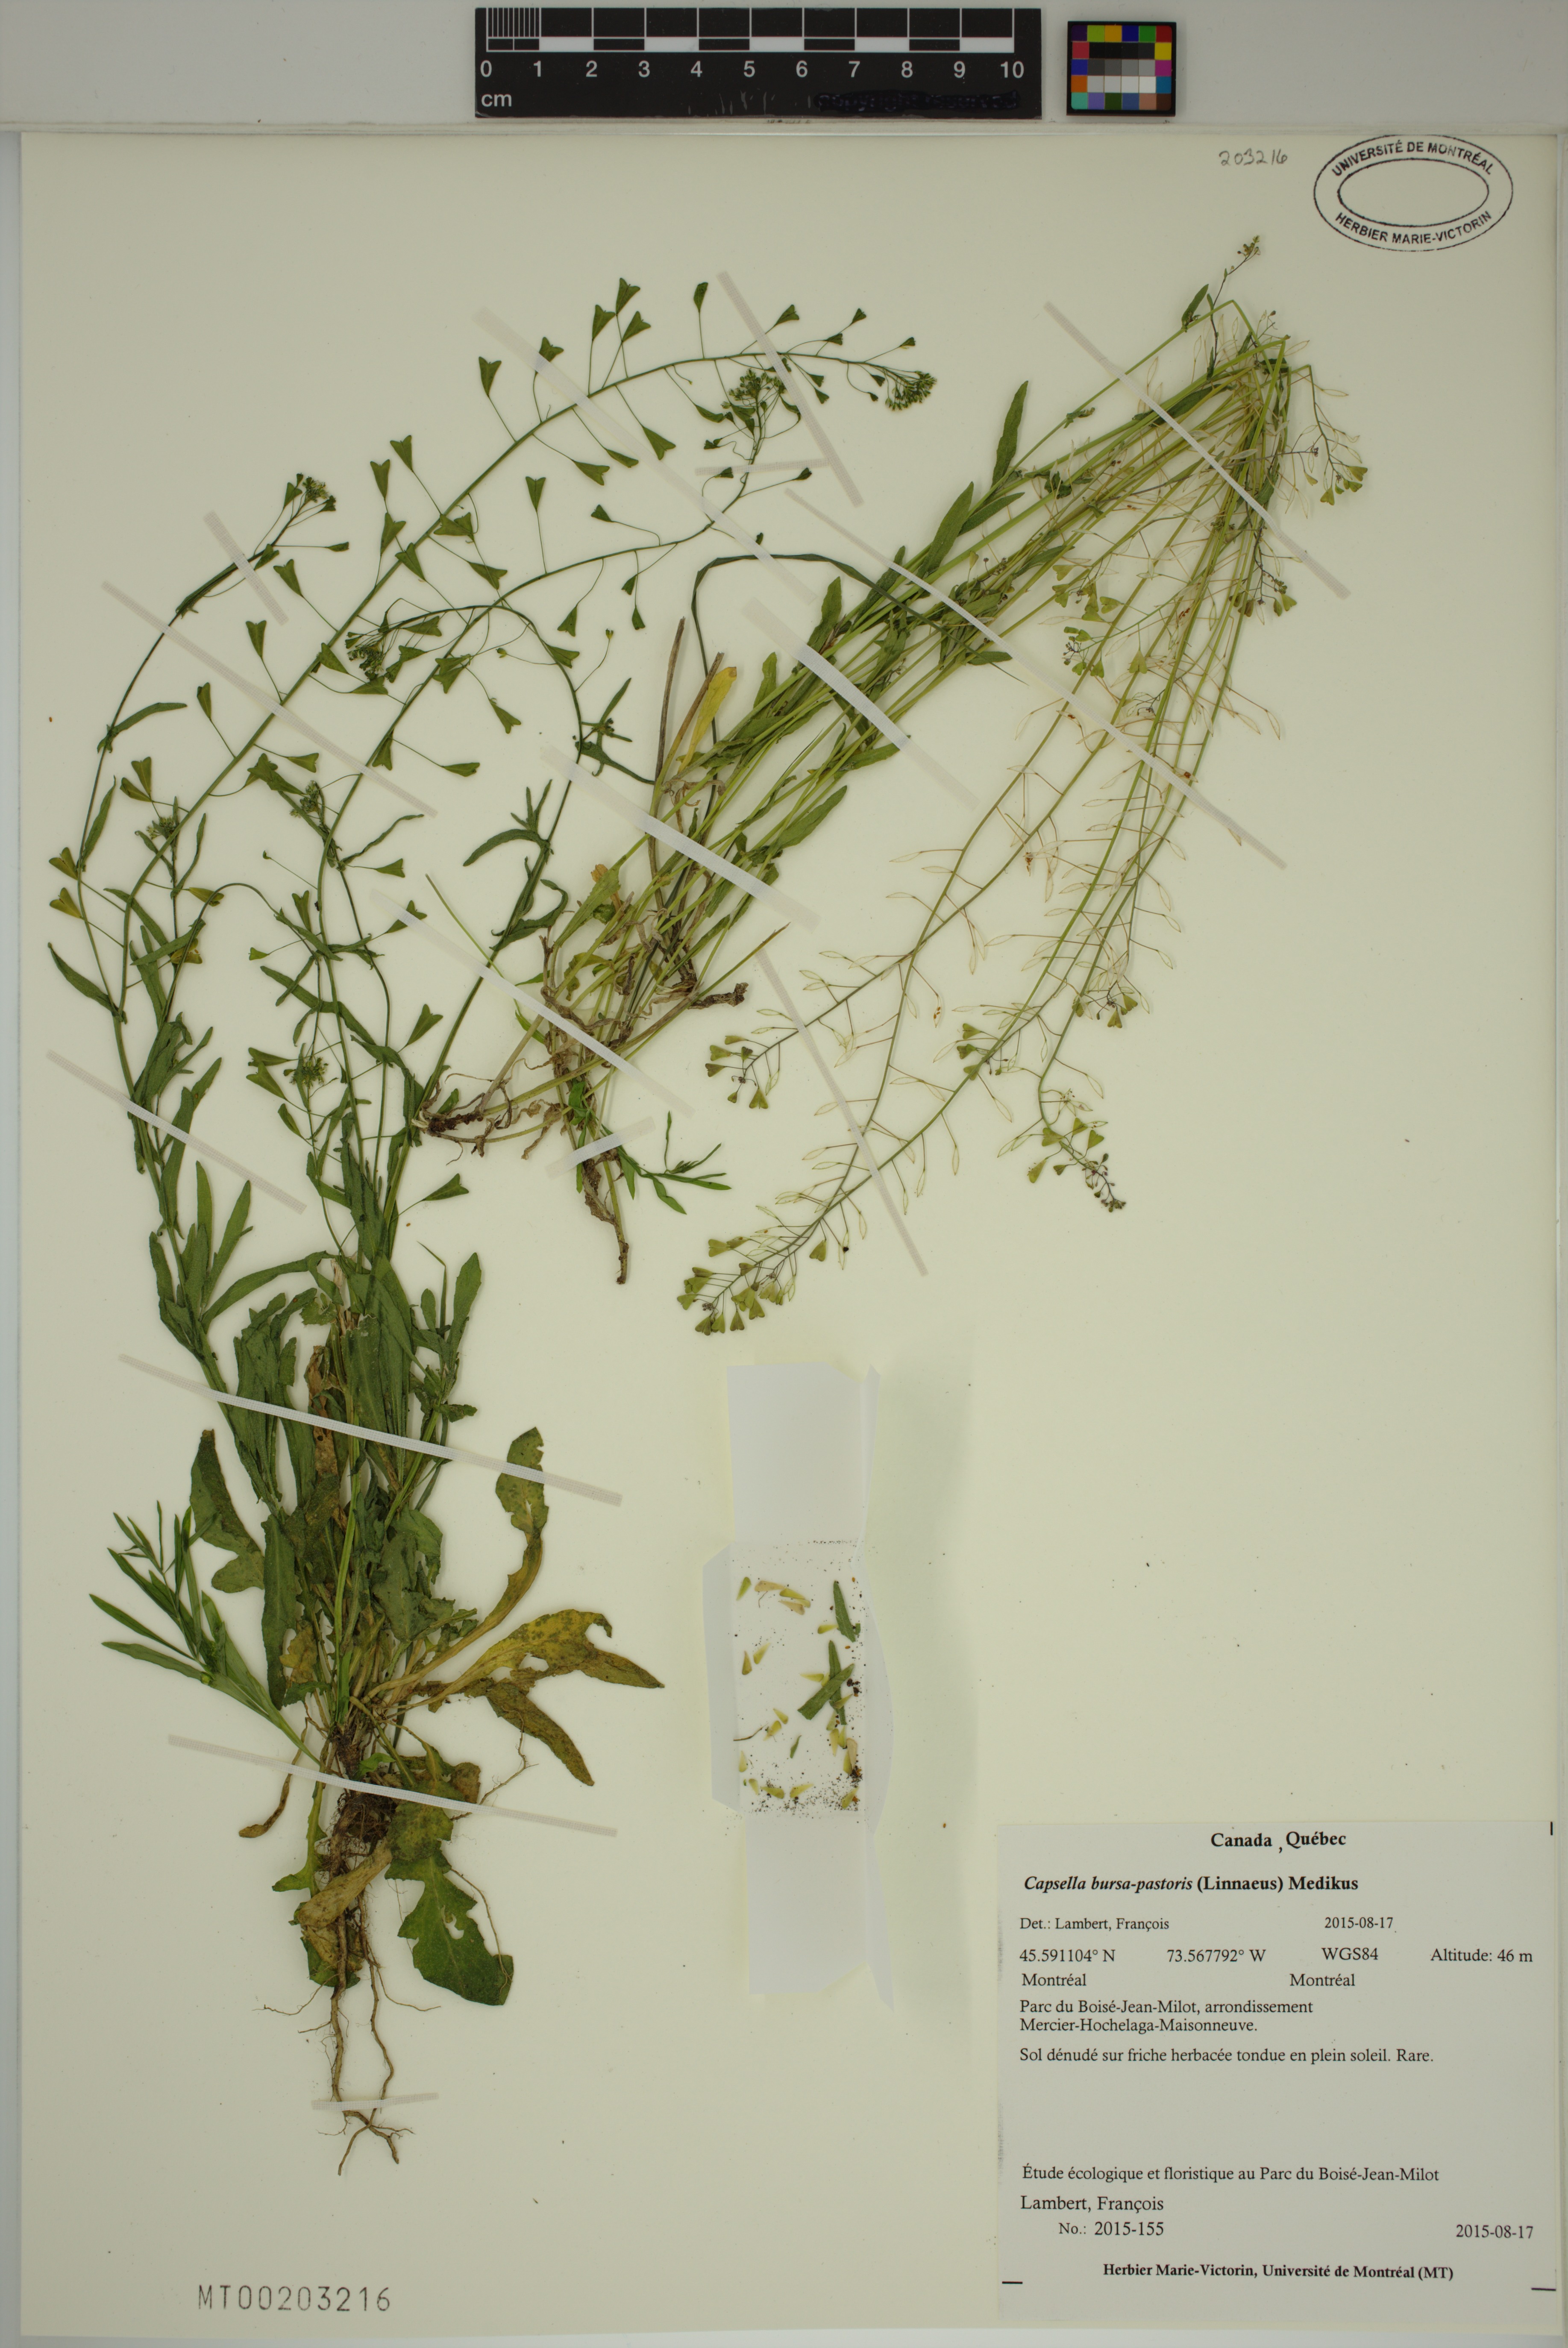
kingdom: Plantae
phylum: Tracheophyta
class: Magnoliopsida
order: Brassicales
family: Brassicaceae
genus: Capsella
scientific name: Capsella bursa-pastoris
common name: Shepherd's purse
